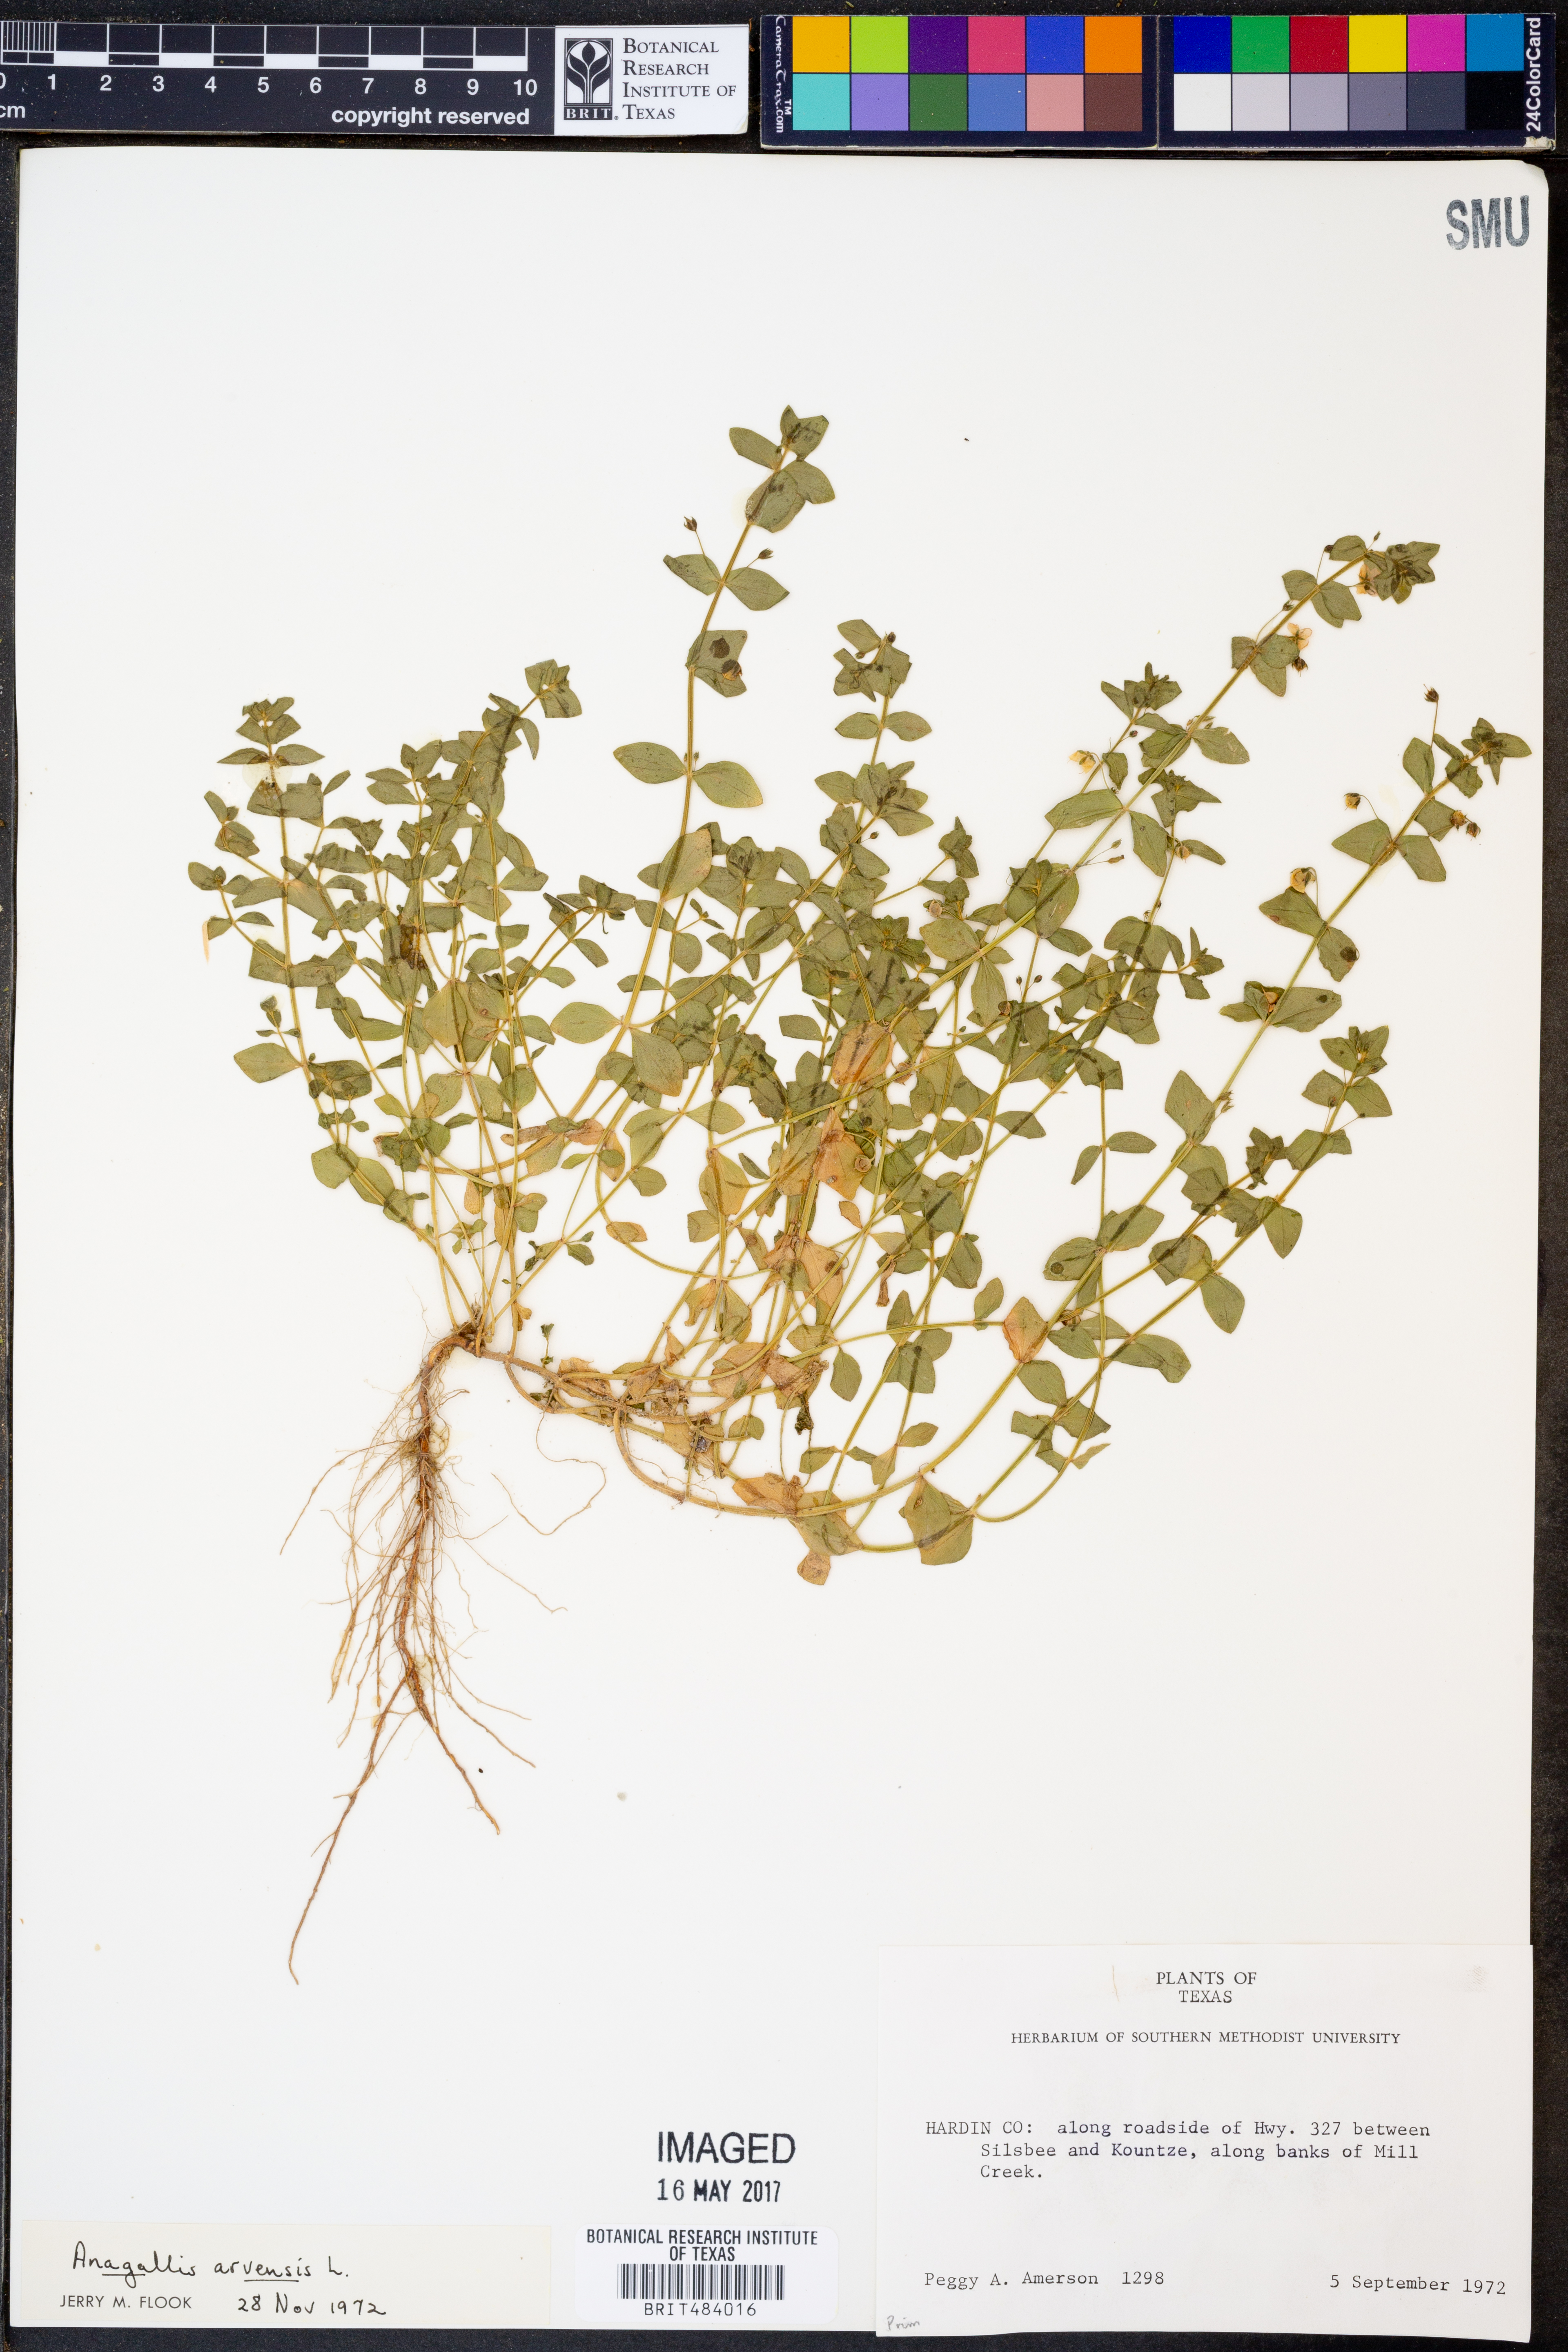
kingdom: Plantae
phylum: Tracheophyta
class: Magnoliopsida
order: Ericales
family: Primulaceae
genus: Lysimachia
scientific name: Lysimachia arvensis
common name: Scarlet pimpernel
